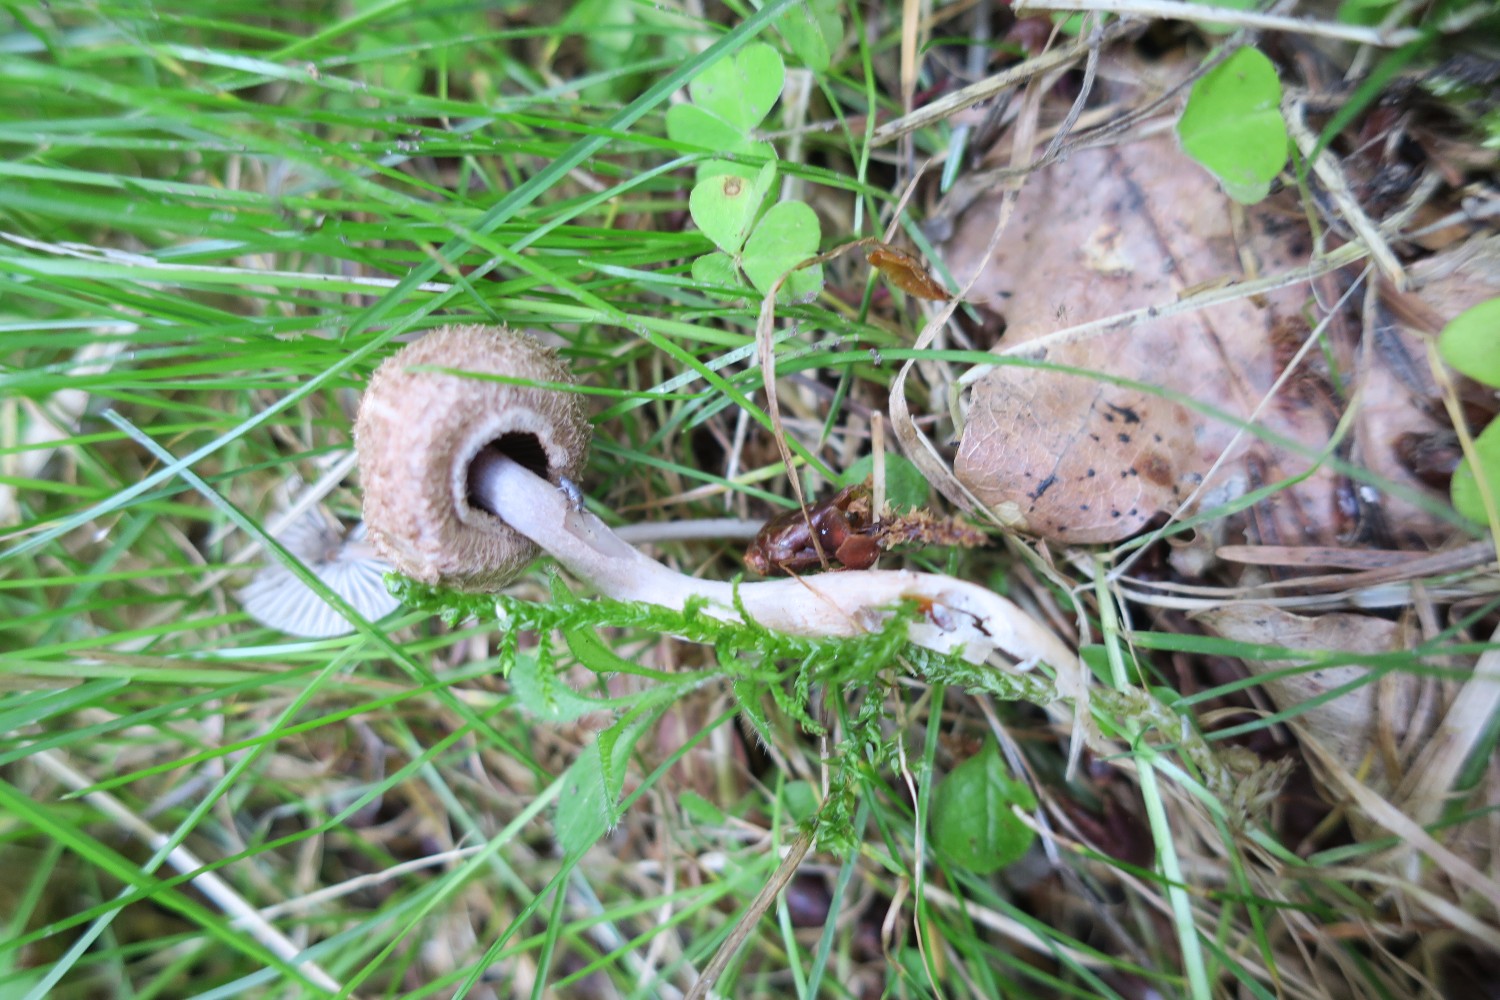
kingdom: Fungi
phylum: Basidiomycota
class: Agaricomycetes
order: Agaricales
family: Inocybaceae
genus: Inocybe
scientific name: Inocybe cincinnata
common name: lillabladet trævlhat
